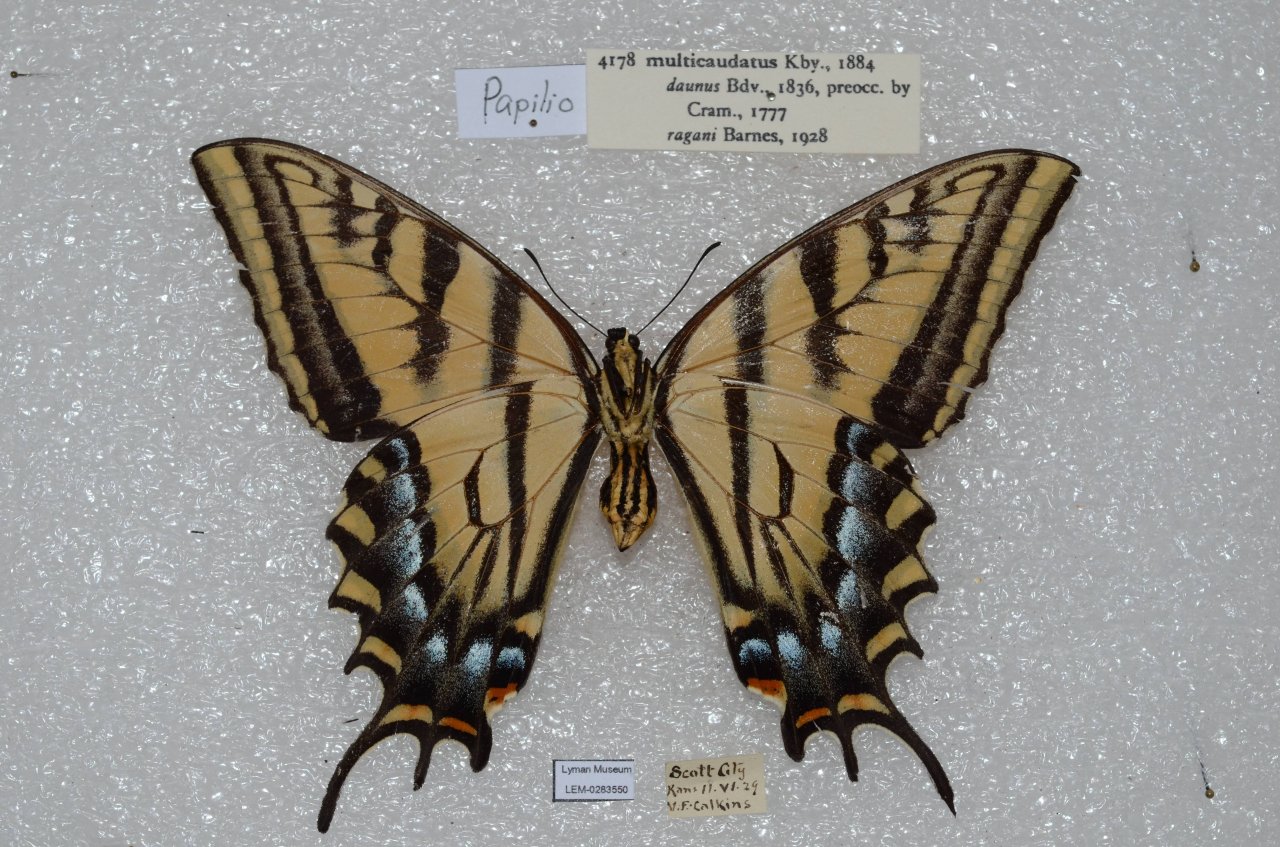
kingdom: Animalia
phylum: Arthropoda
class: Insecta
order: Lepidoptera
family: Papilionidae
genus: Papilio
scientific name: Papilio multicaudata
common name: Two-tailed Swallowtail
